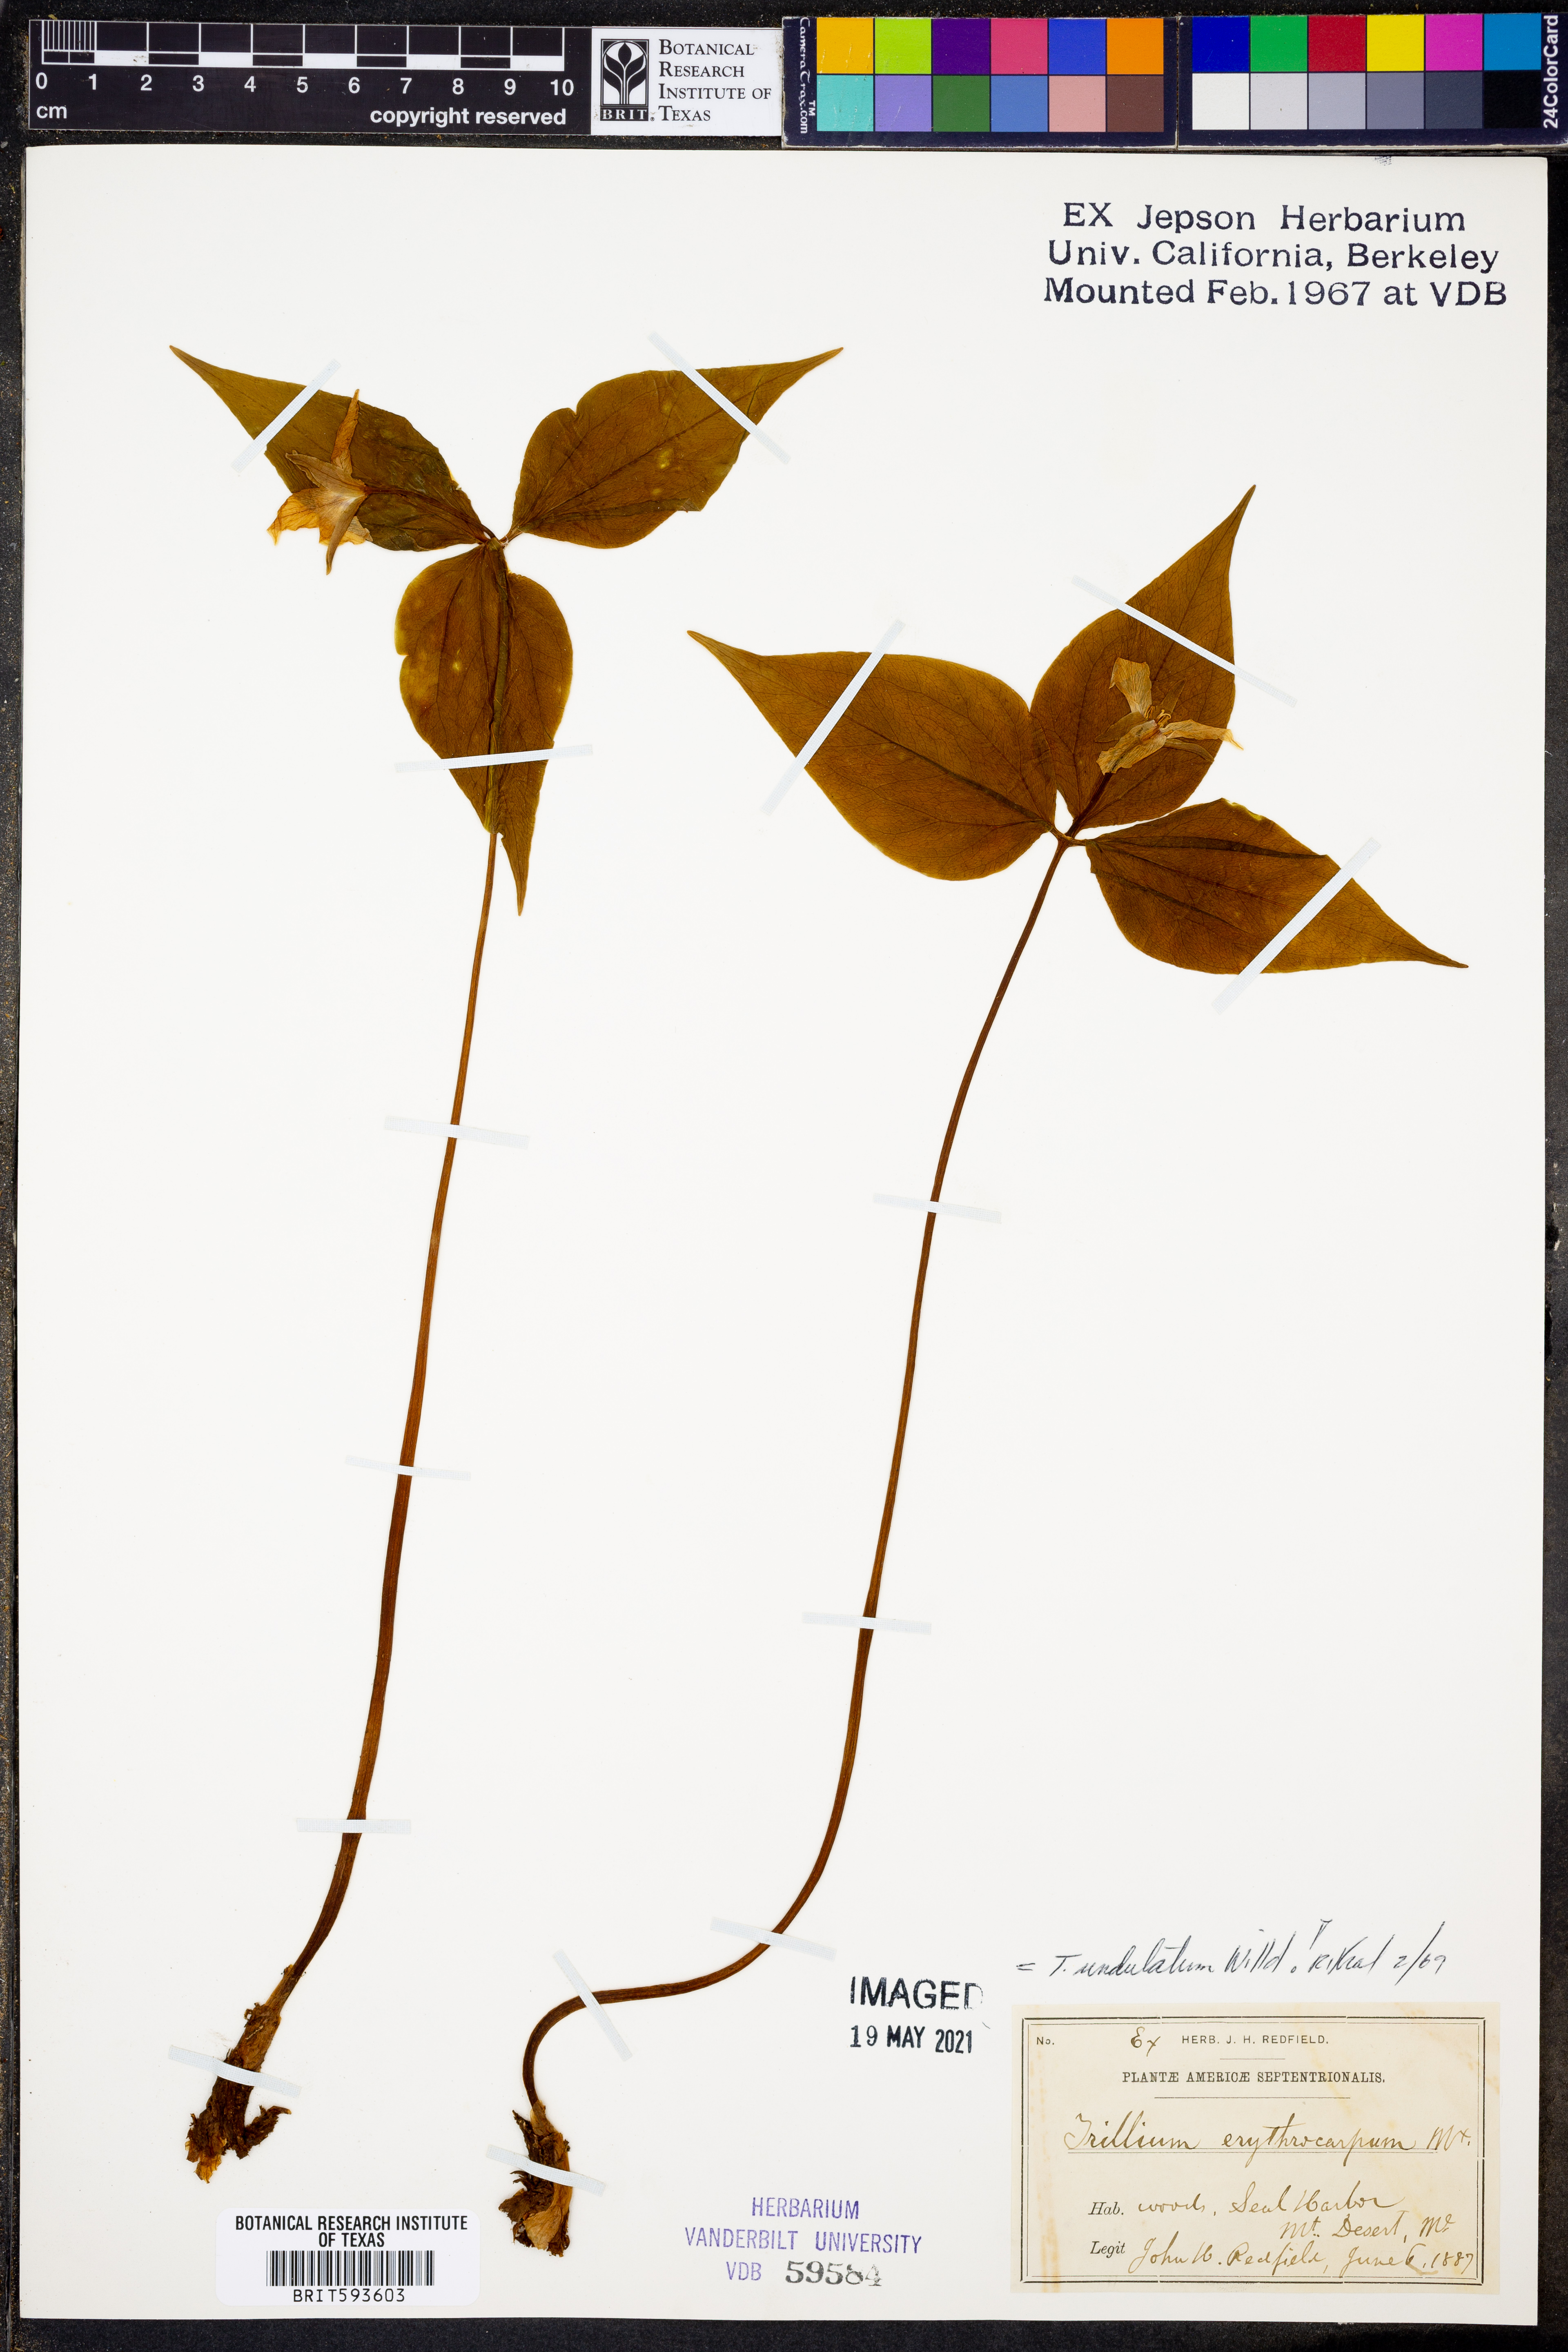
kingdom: Plantae
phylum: Tracheophyta
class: Liliopsida
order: Liliales
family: Melanthiaceae
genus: Trillium
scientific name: Trillium undulatum
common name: Paint trillium
